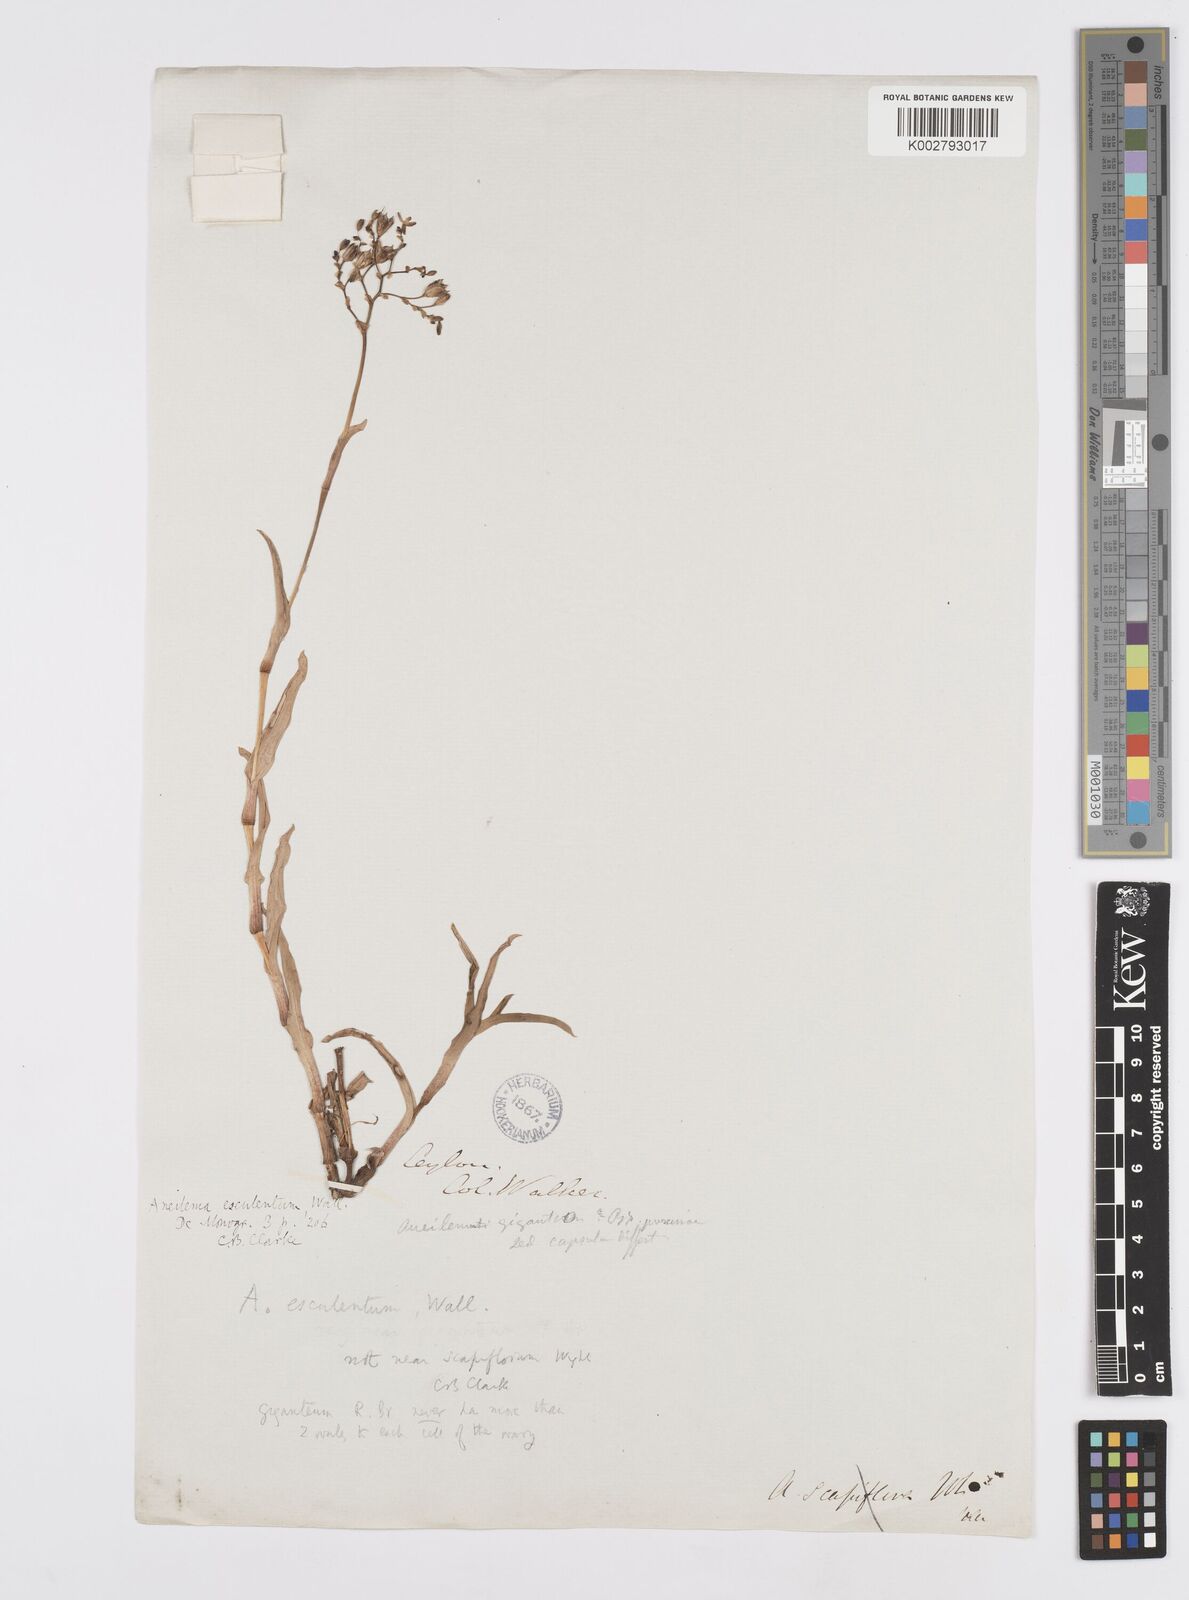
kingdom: Plantae
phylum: Tracheophyta
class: Liliopsida
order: Commelinales
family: Commelinaceae
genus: Murdannia
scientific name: Murdannia esculenta
